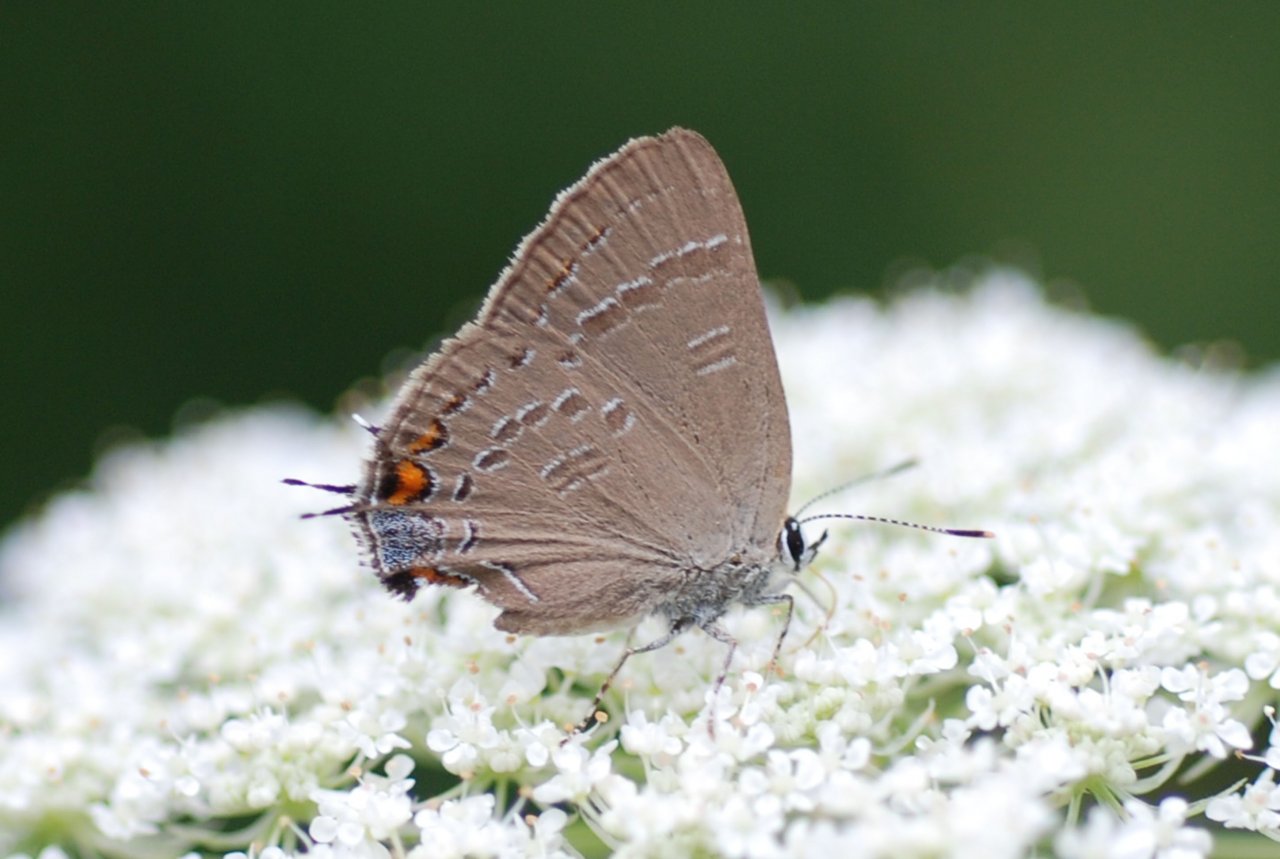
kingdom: Animalia
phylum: Arthropoda
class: Insecta
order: Lepidoptera
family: Lycaenidae
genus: Satyrium
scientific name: Satyrium calanus
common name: Banded Hairstreak
